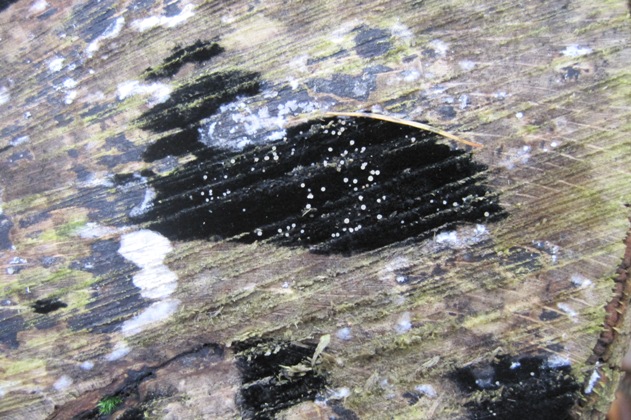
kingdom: Fungi
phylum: Ascomycota
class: Leotiomycetes
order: Helotiales
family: Helotiaceae
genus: Bispora
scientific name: Bispora pallescens
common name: måtte-snitskive
